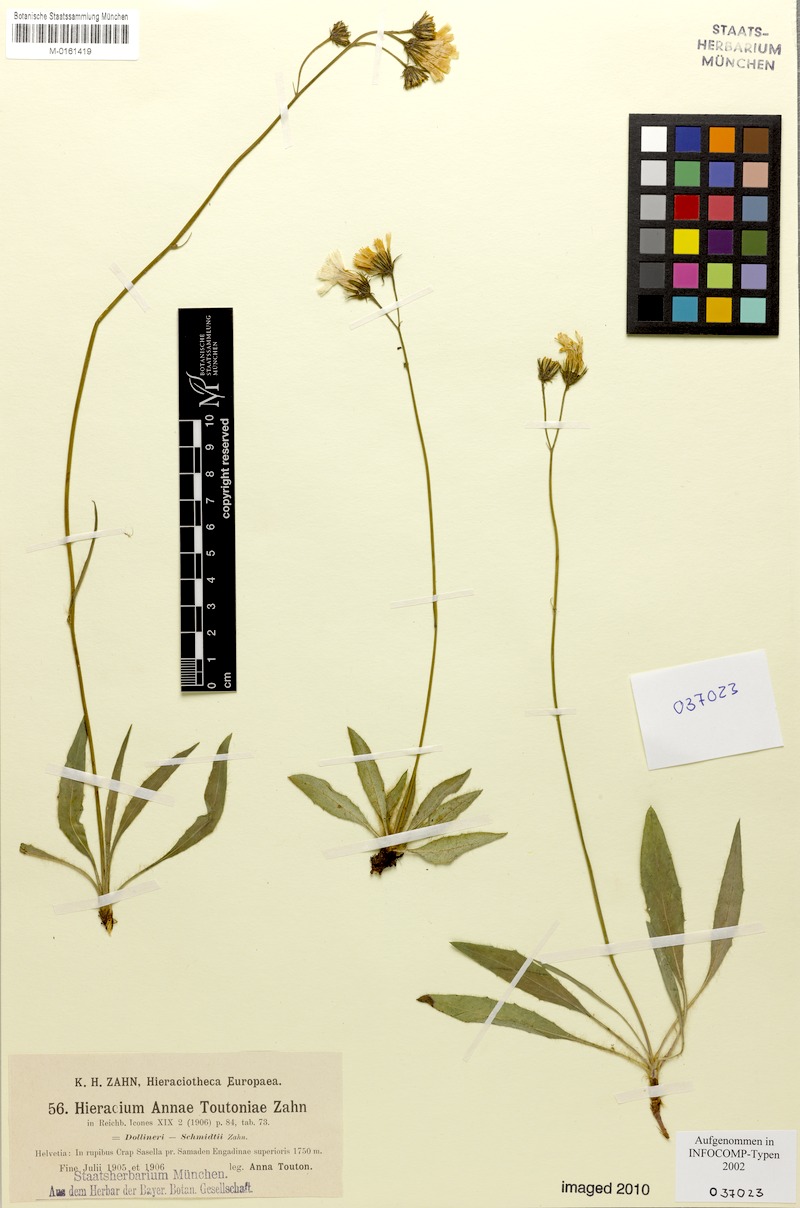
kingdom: Plantae
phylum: Tracheophyta
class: Magnoliopsida
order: Asterales
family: Asteraceae
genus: Hieracium
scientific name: Hieracium annae-toutoniae
